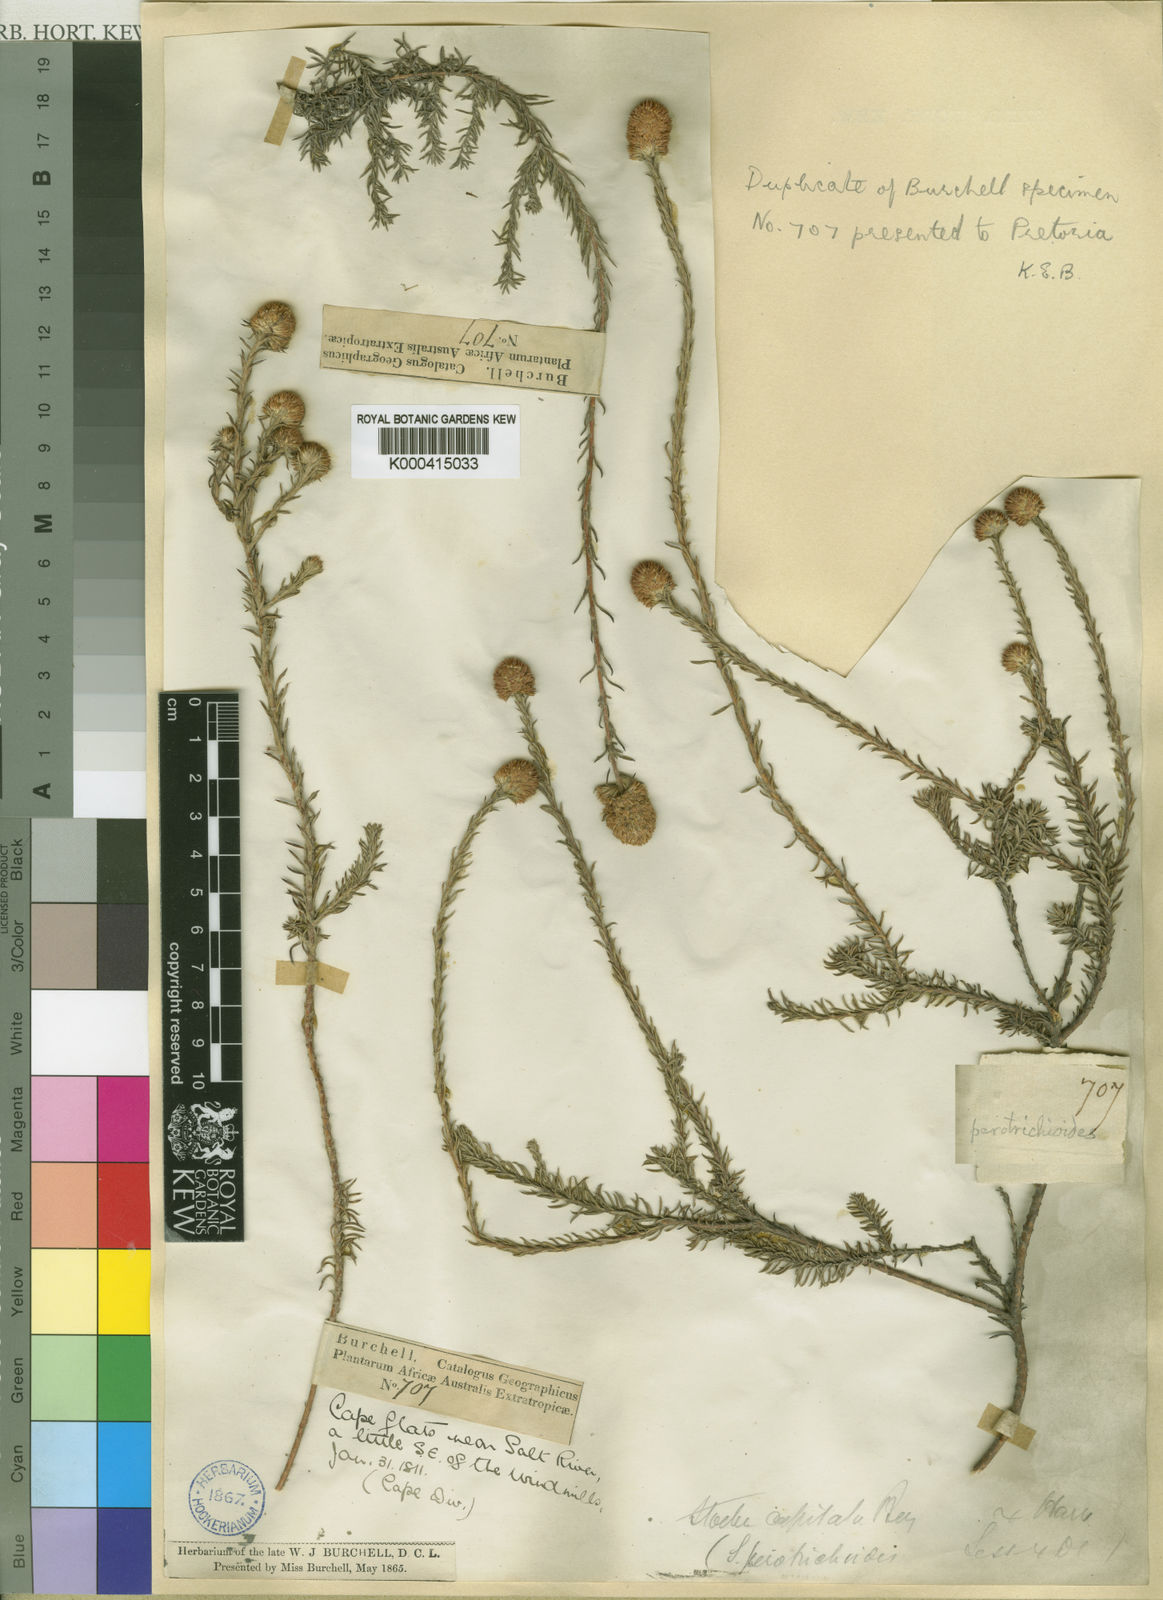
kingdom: Plantae
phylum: Tracheophyta
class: Magnoliopsida
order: Asterales
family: Asteraceae
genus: Stoebe
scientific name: Stoebe capitata
